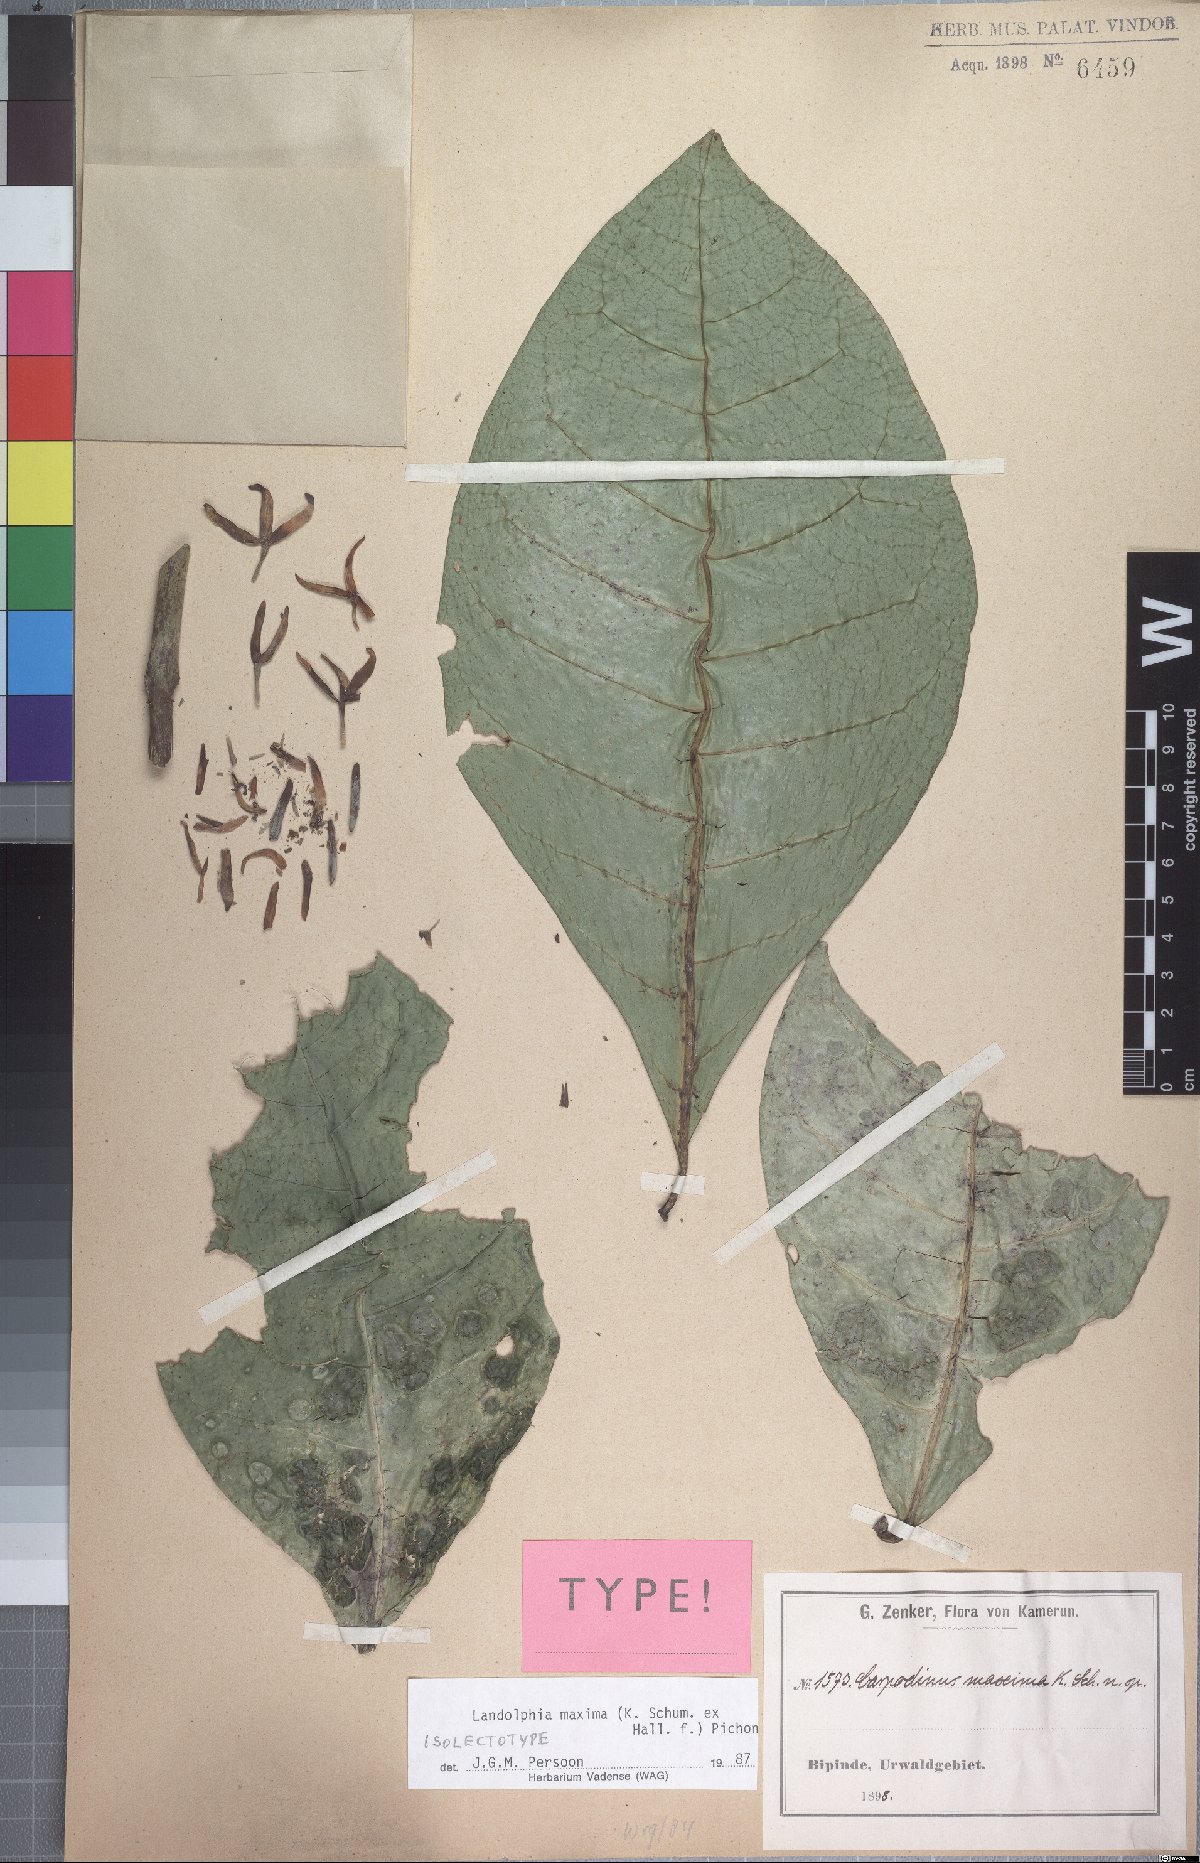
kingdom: Plantae
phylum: Tracheophyta
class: Magnoliopsida
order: Gentianales
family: Apocynaceae
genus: Landolphia
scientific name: Landolphia maxima
